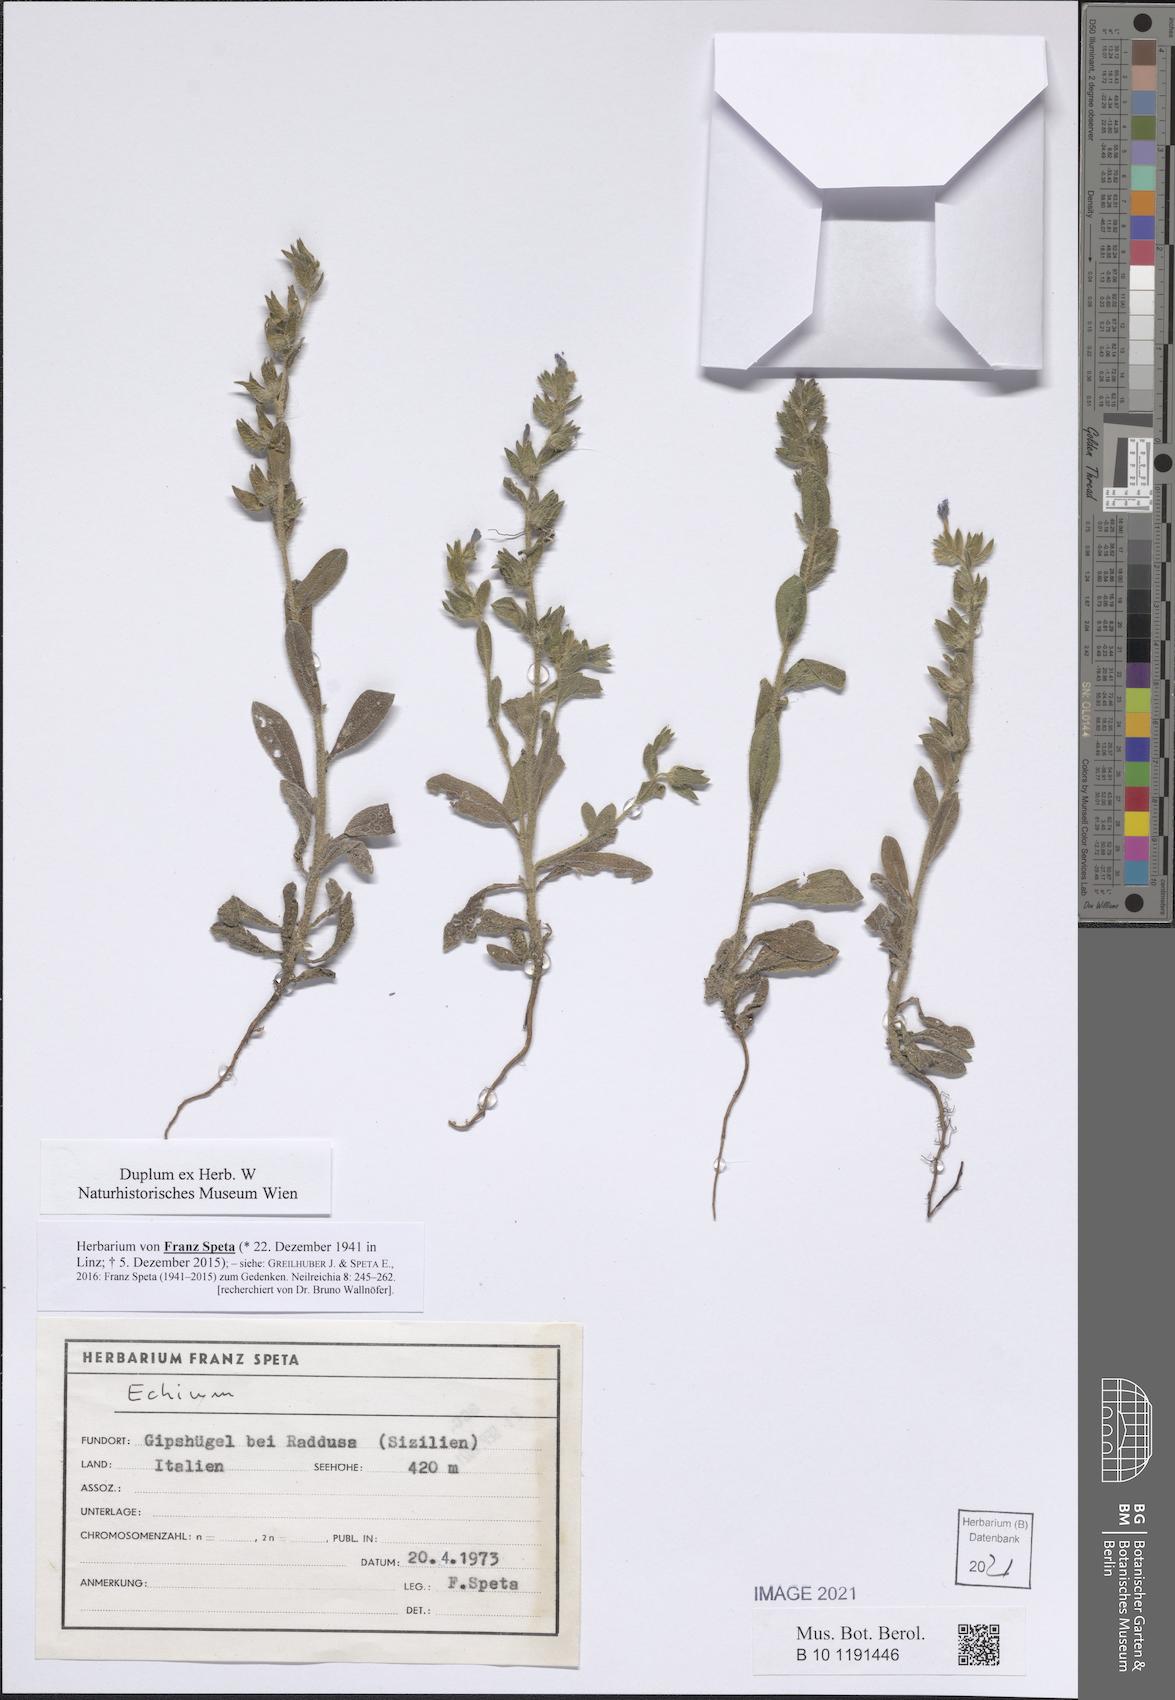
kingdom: Plantae
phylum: Tracheophyta
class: Magnoliopsida
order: Boraginales
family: Boraginaceae
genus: Echium
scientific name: Echium
